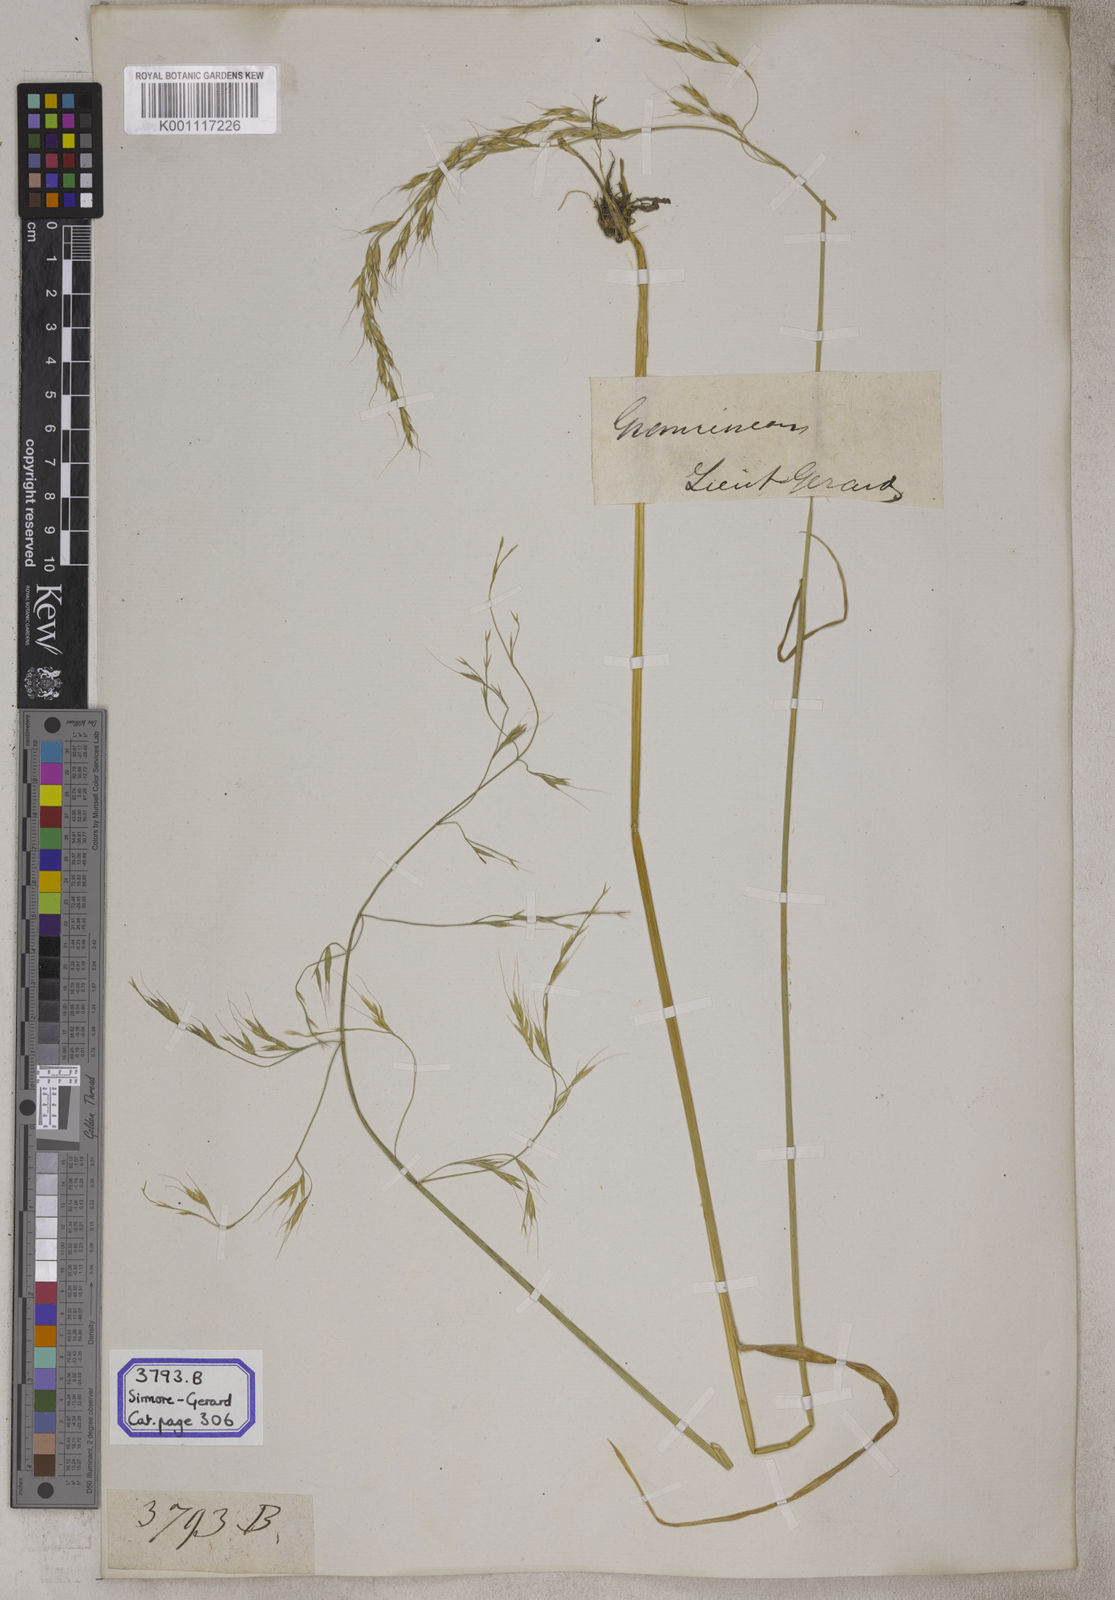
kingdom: Plantae
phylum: Tracheophyta
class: Liliopsida
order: Poales
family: Poaceae
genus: Avena
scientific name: Avena
